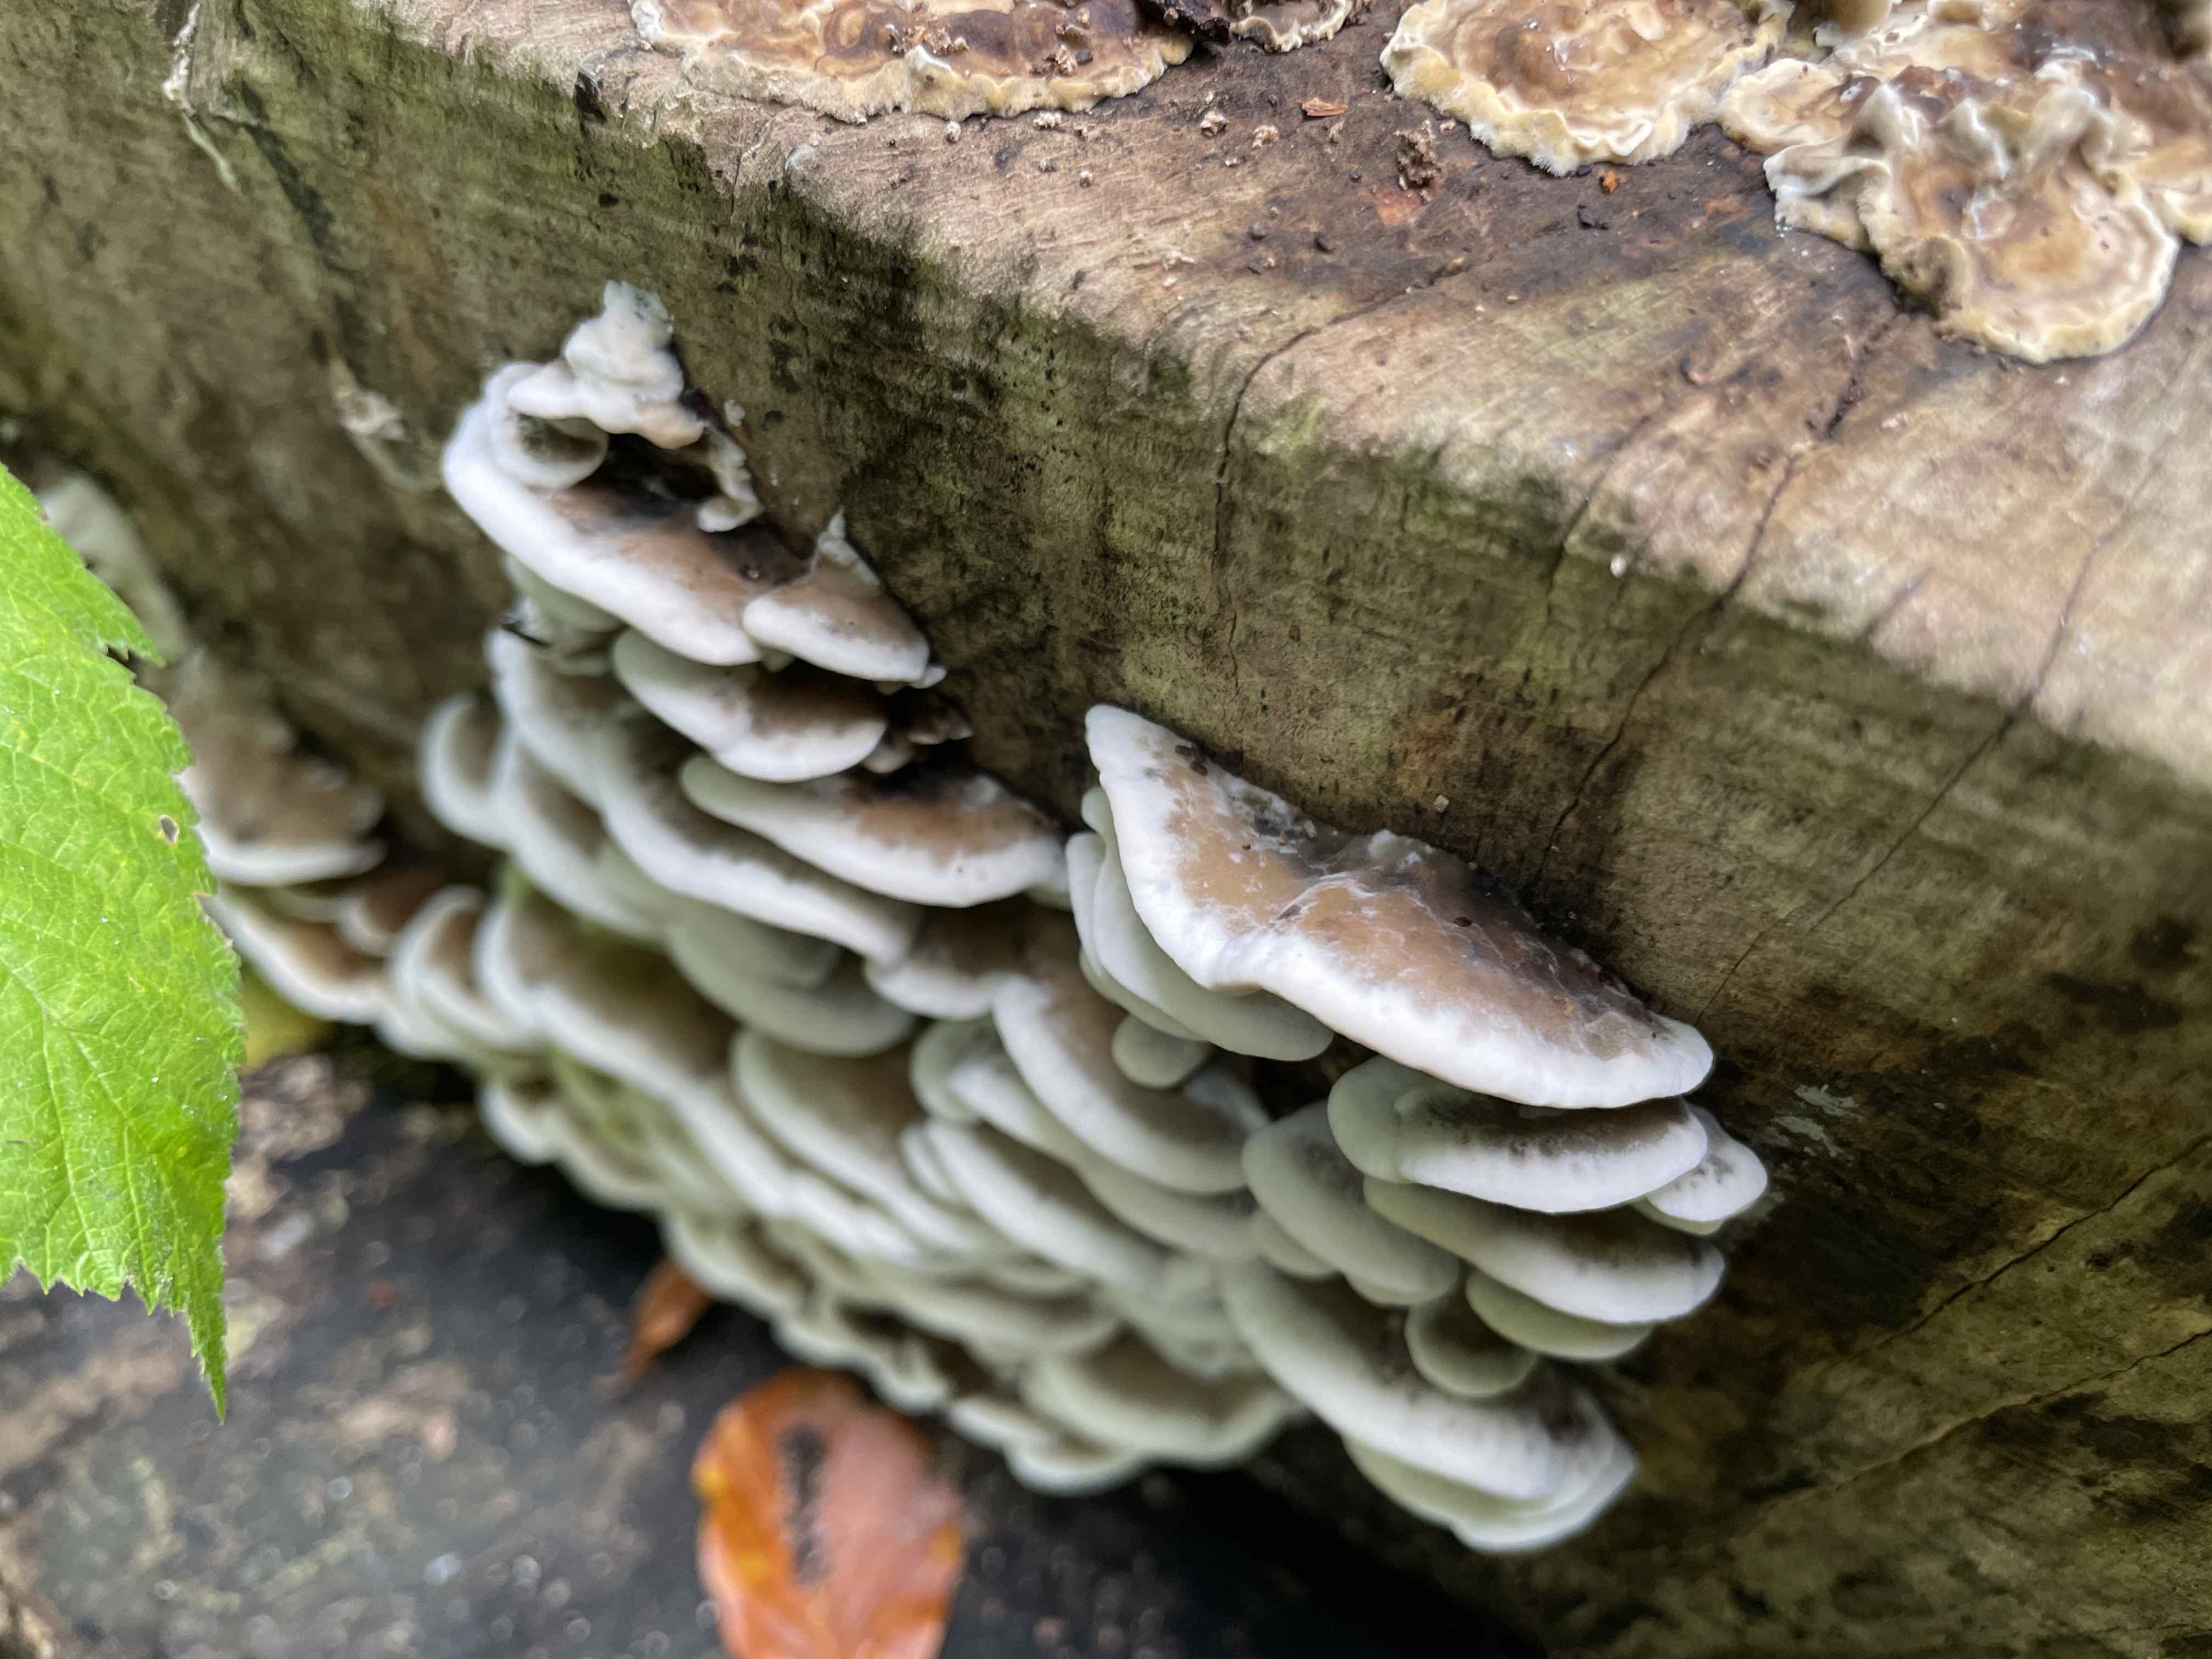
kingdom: Fungi
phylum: Basidiomycota
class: Agaricomycetes
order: Polyporales
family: Polyporaceae
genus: Trametes
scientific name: Trametes versicolor
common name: broget læderporesvamp
